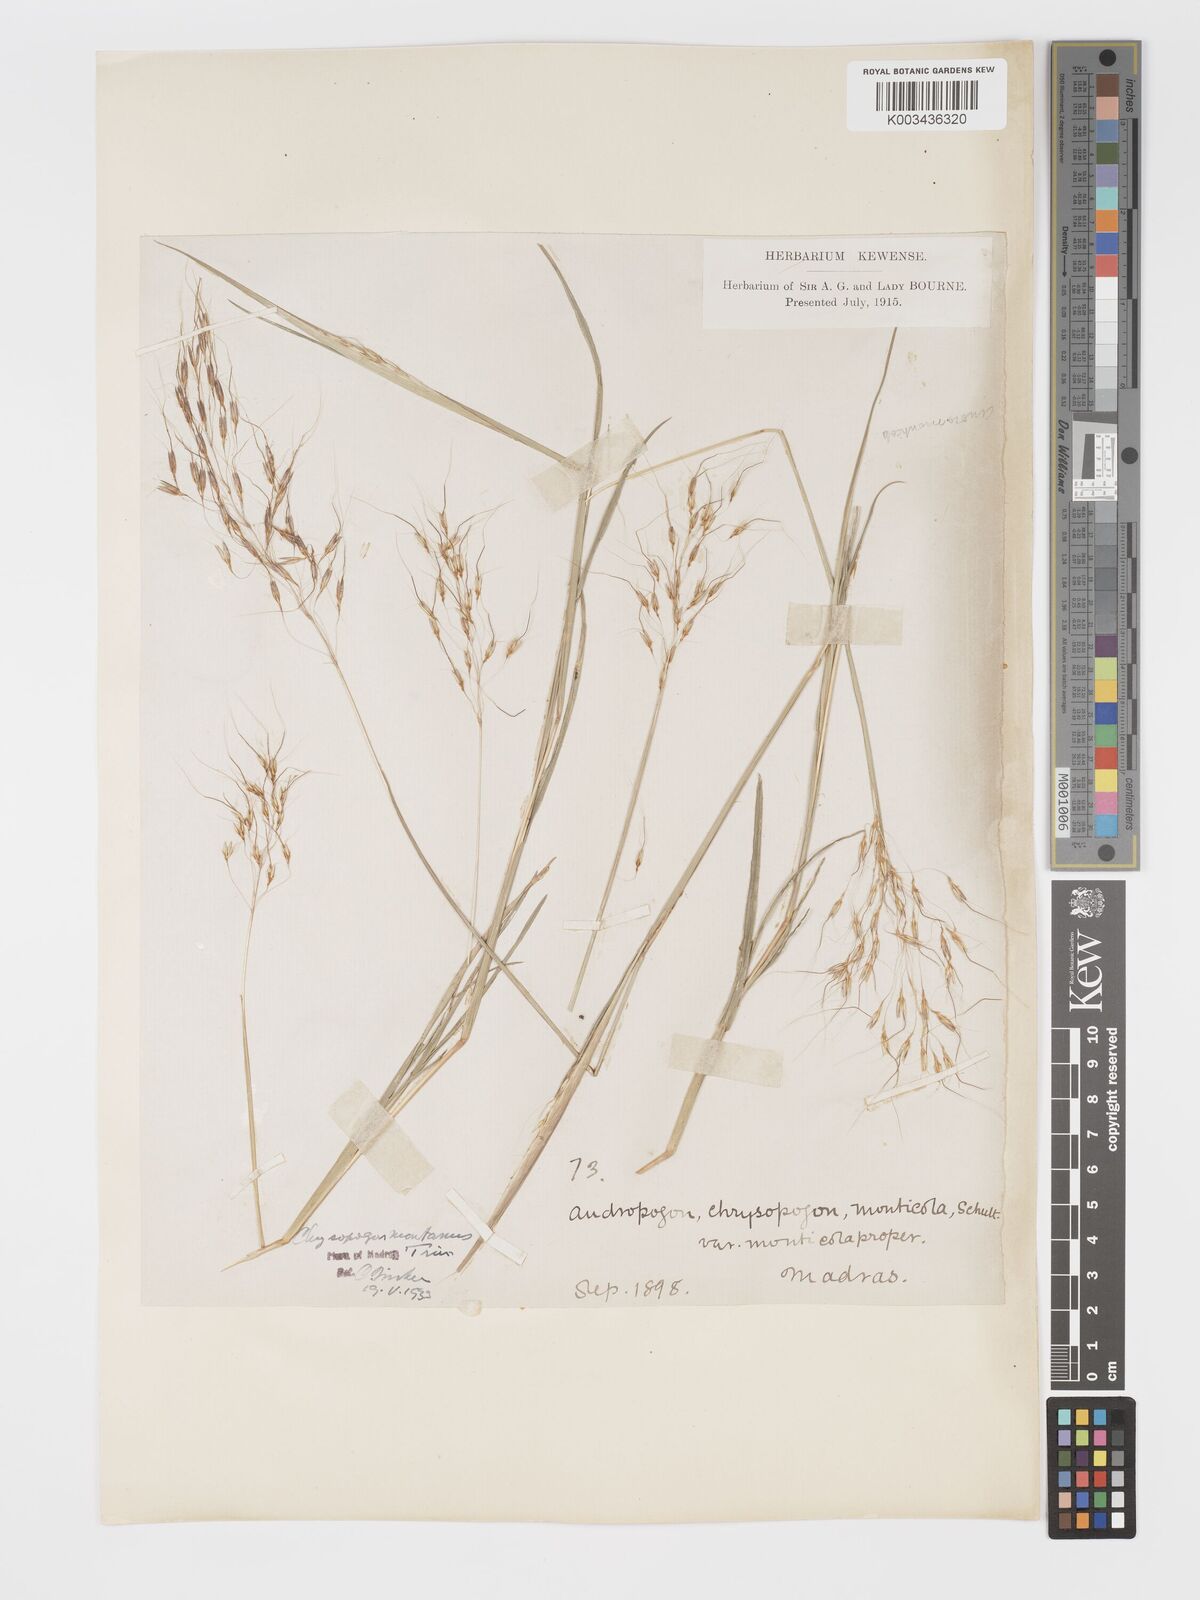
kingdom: Plantae
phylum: Tracheophyta
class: Liliopsida
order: Poales
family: Poaceae
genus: Chrysopogon
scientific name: Chrysopogon fulvus
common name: Red false beardgrass
